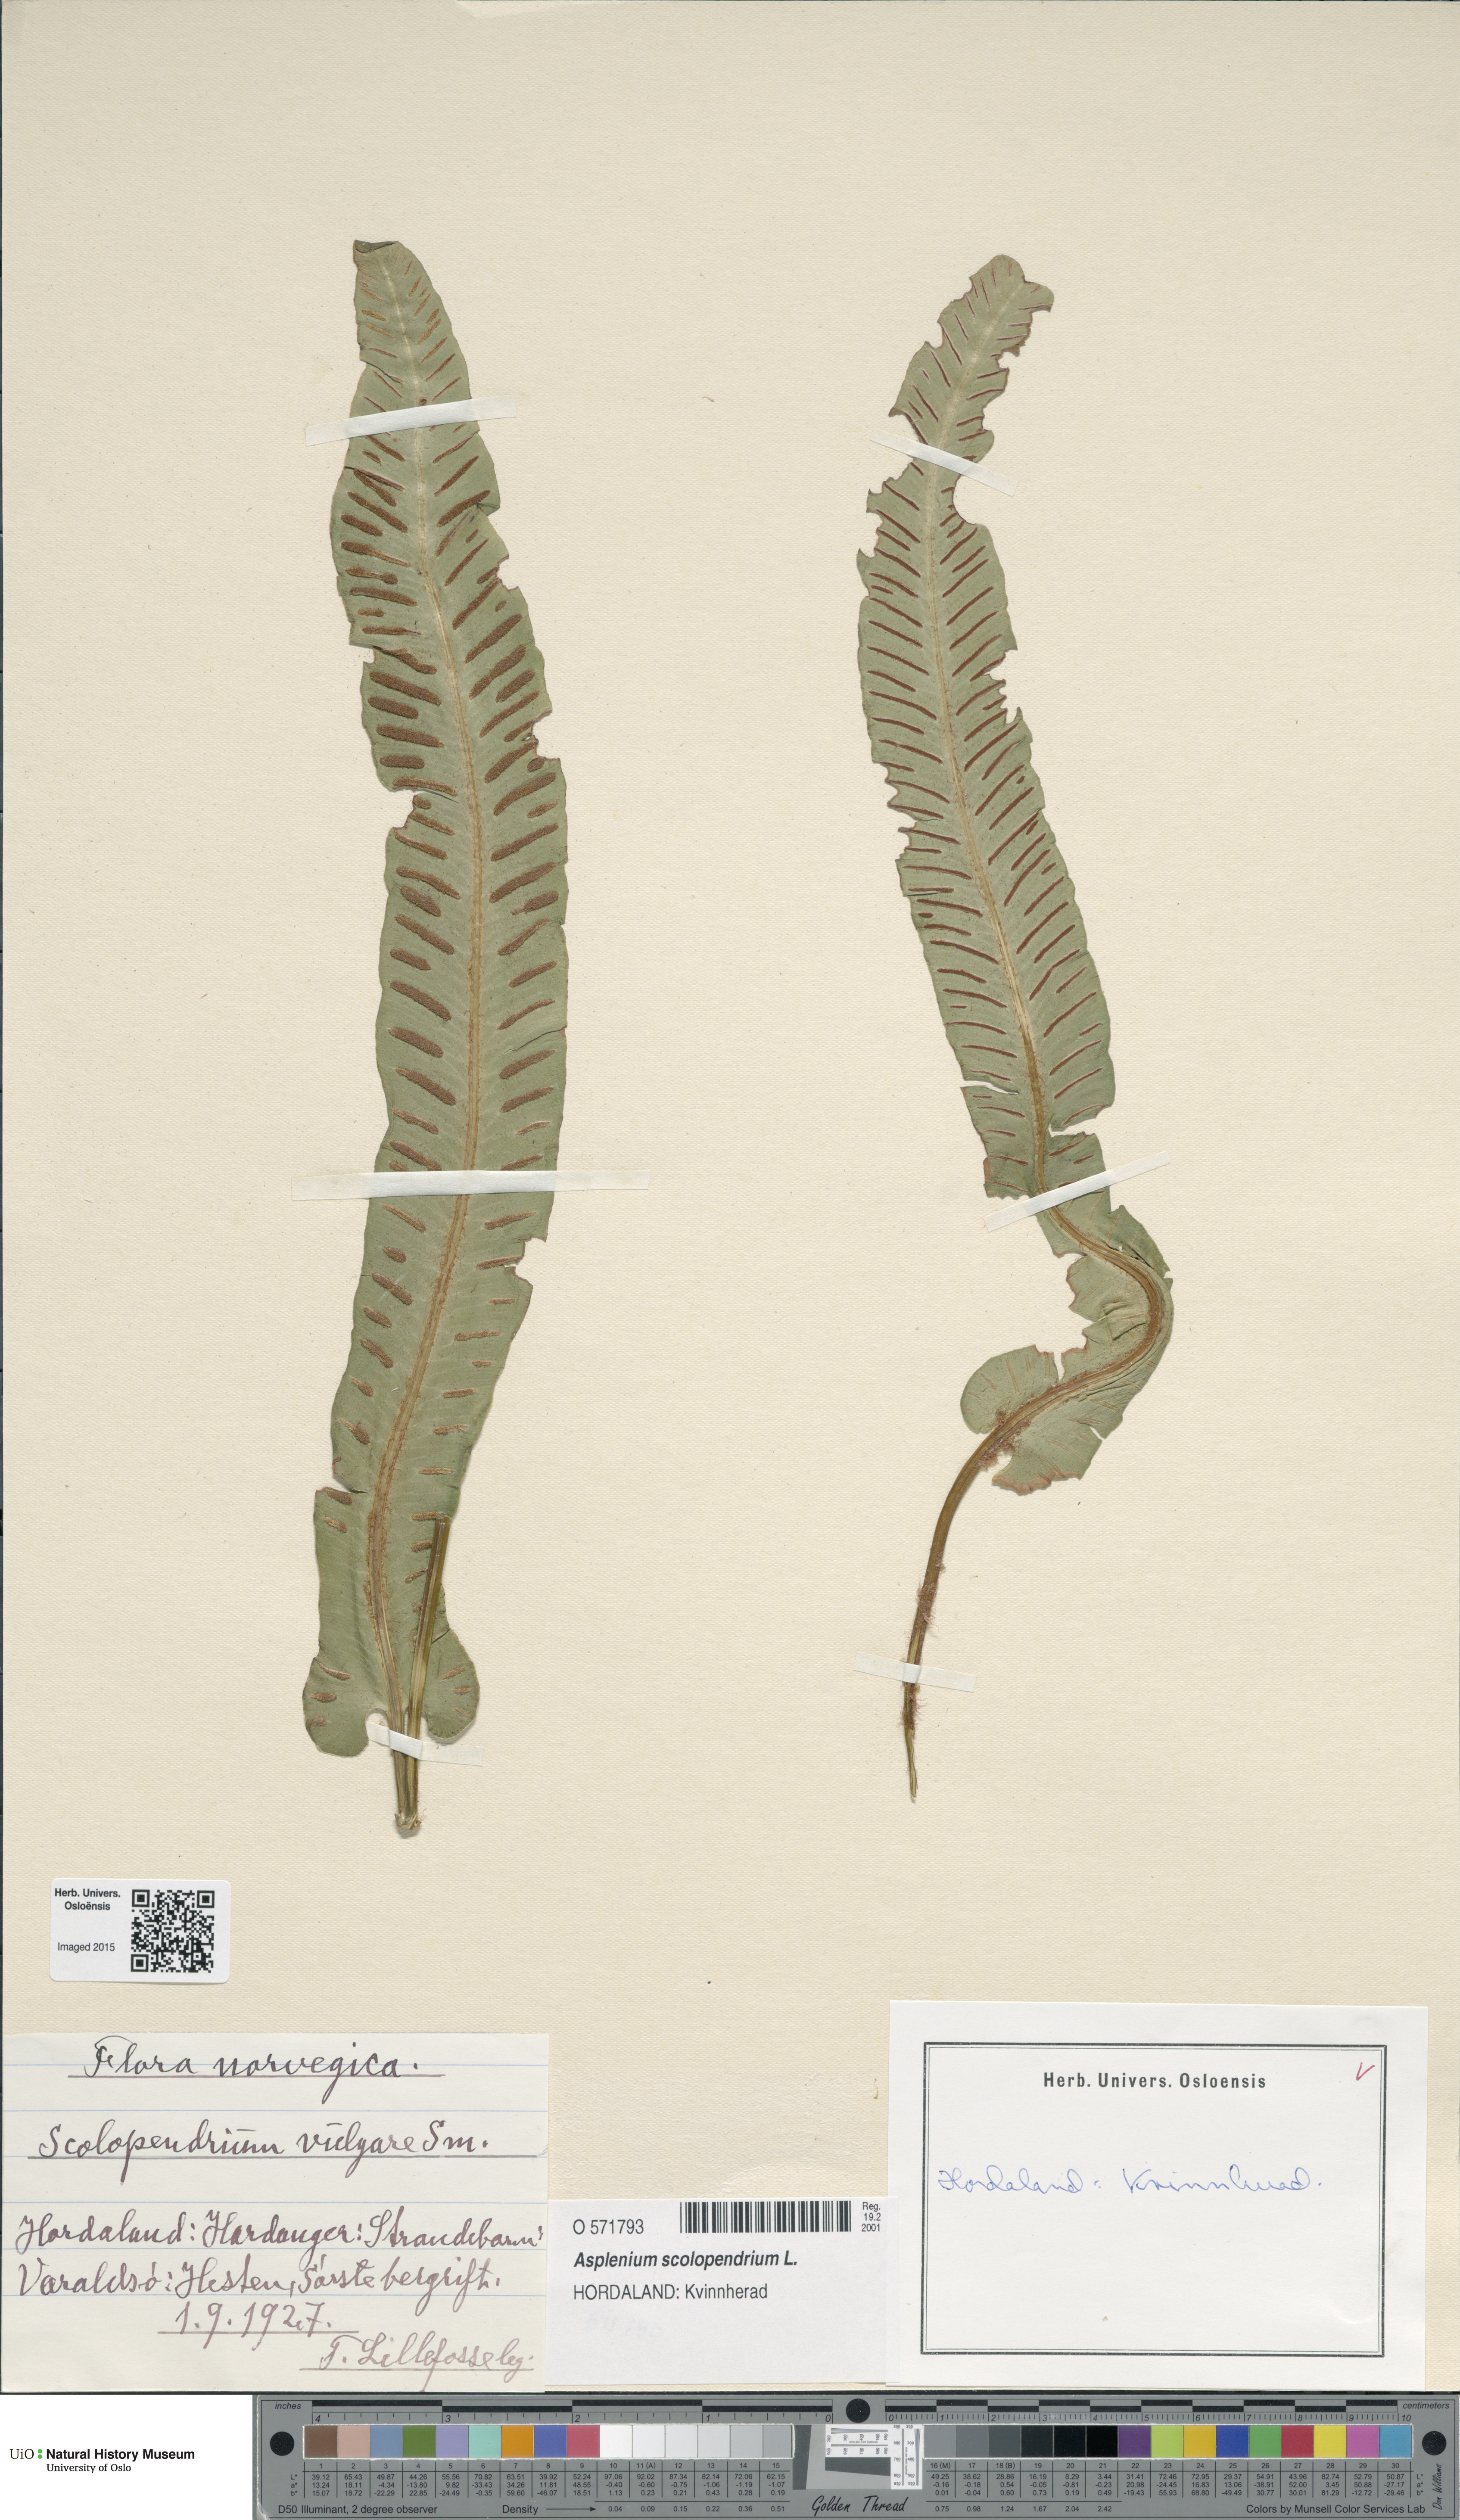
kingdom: Plantae
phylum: Tracheophyta
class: Polypodiopsida
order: Polypodiales
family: Aspleniaceae
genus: Asplenium
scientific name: Asplenium scolopendrium
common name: Hart's-tongue fern
